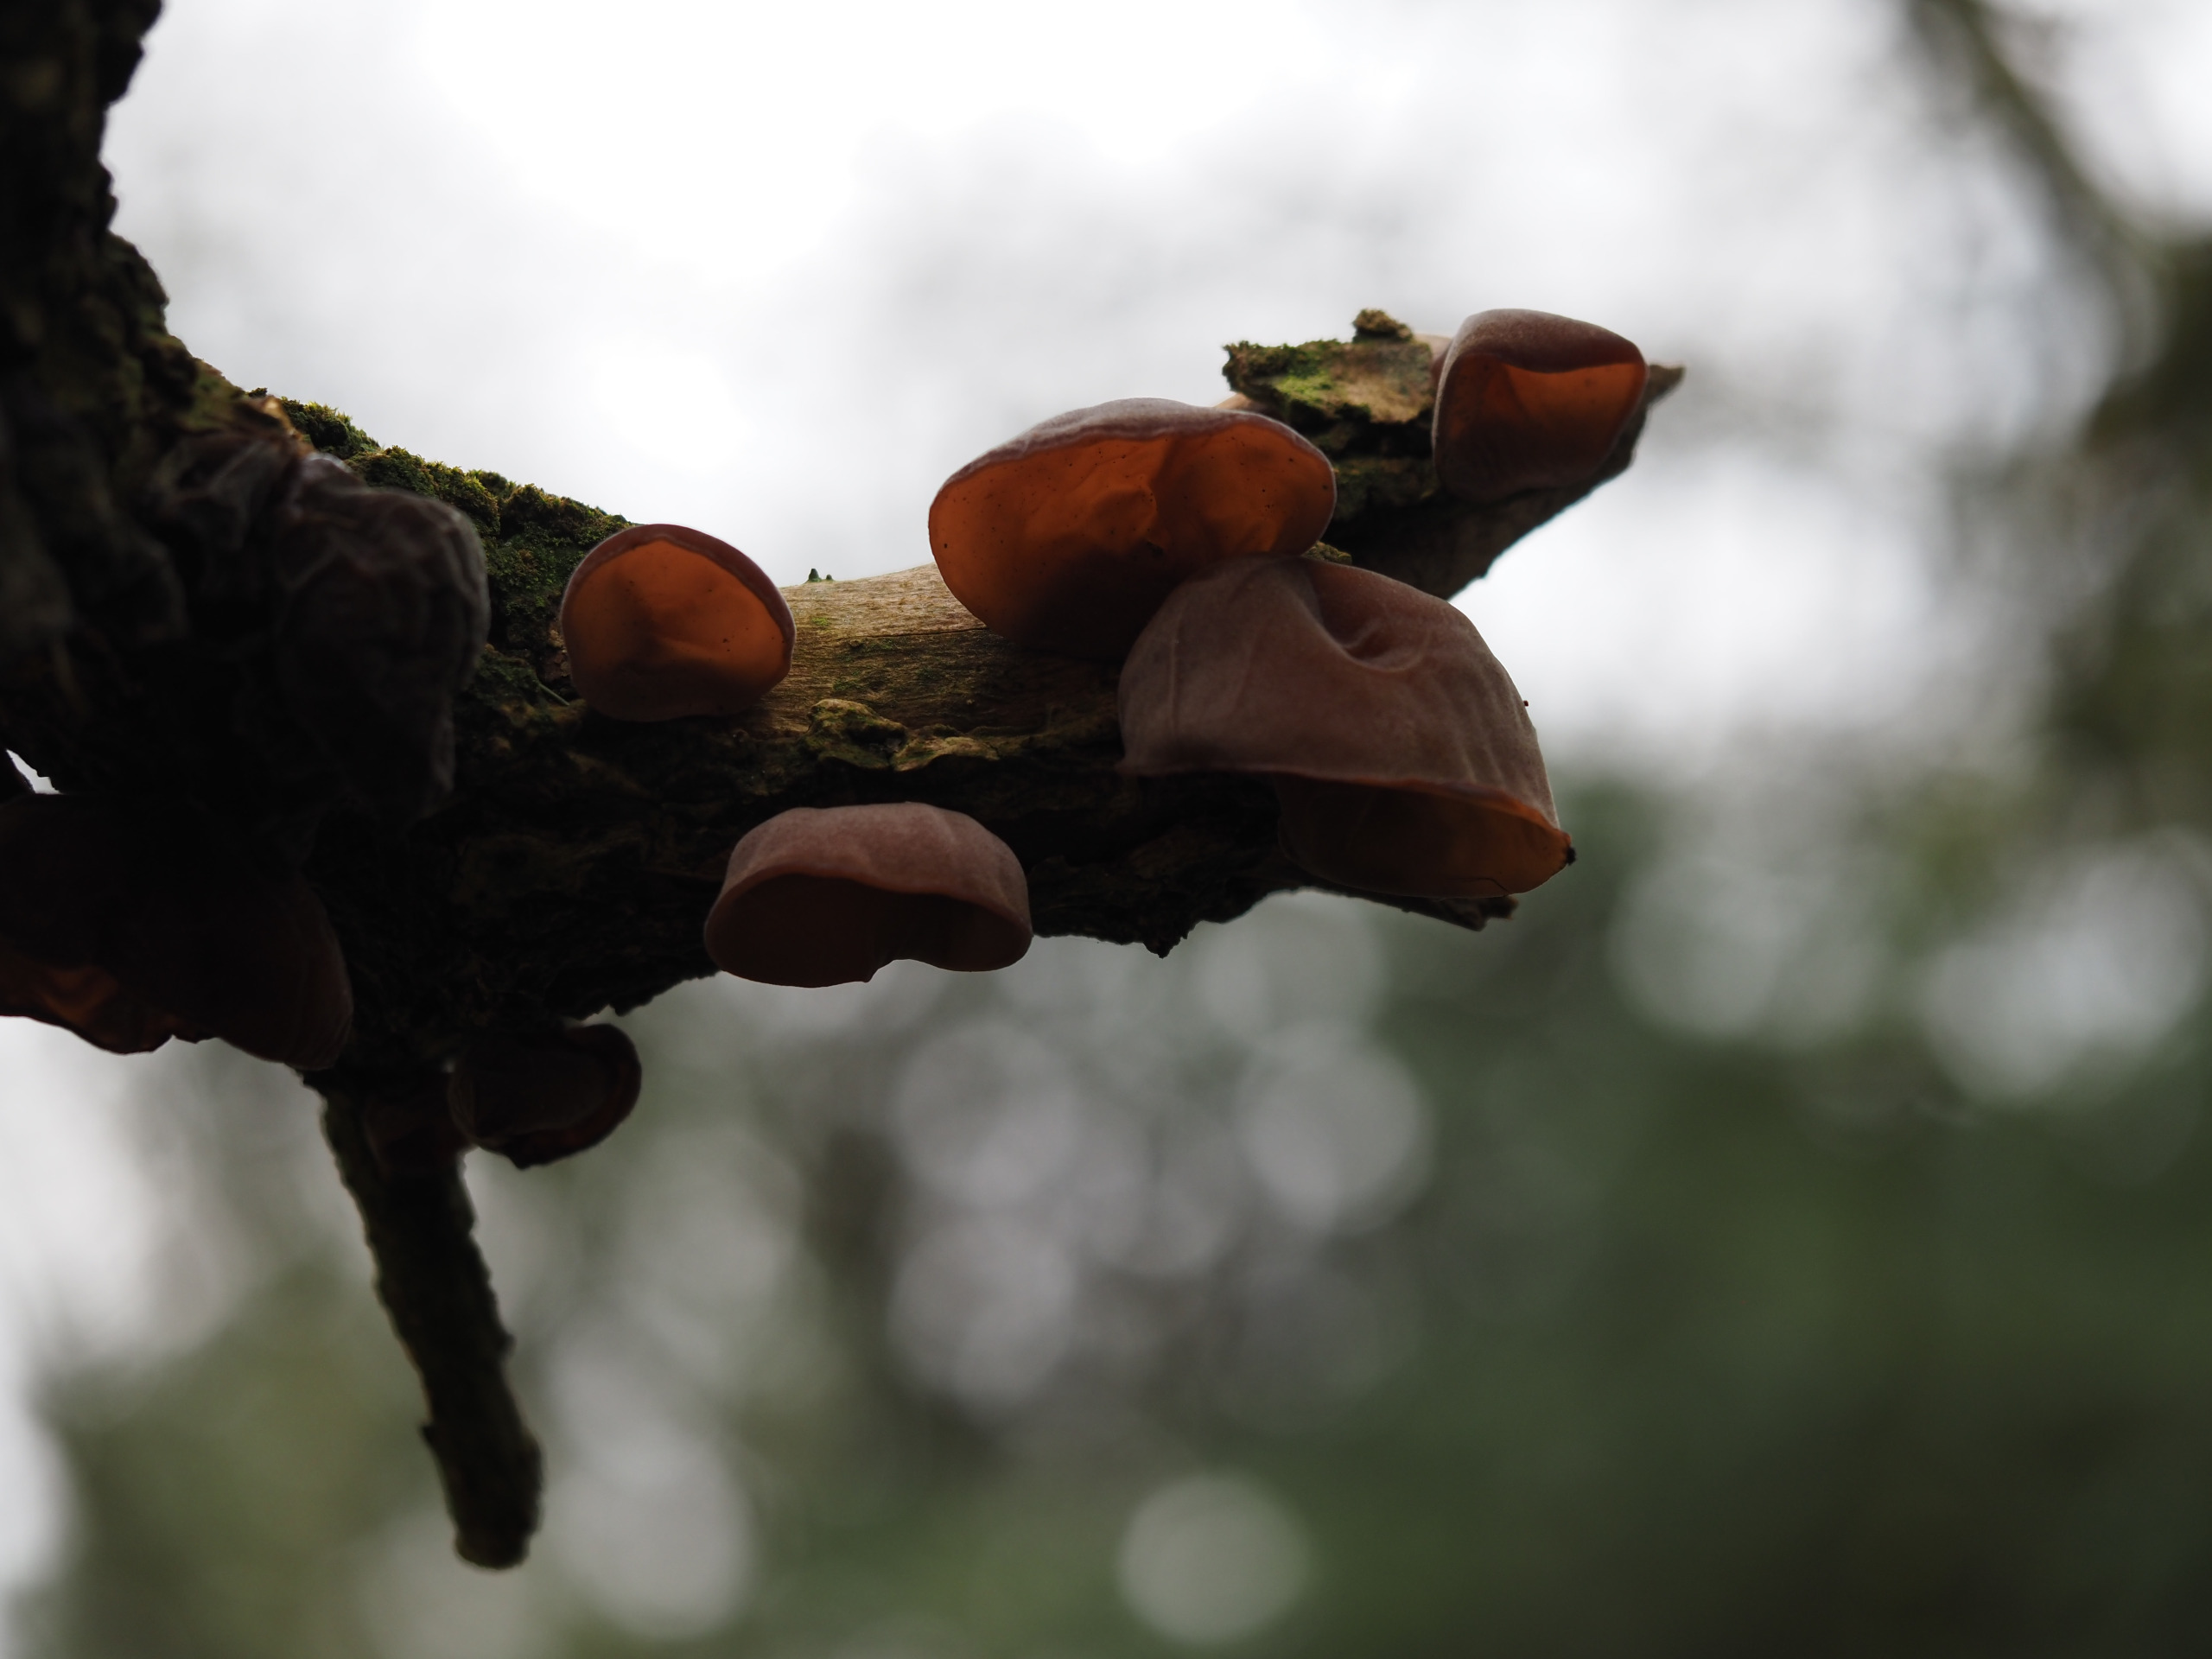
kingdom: Fungi
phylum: Basidiomycota
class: Agaricomycetes
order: Auriculariales
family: Auriculariaceae
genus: Auricularia
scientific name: Auricularia auricula-judae
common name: Almindelig judasøre
